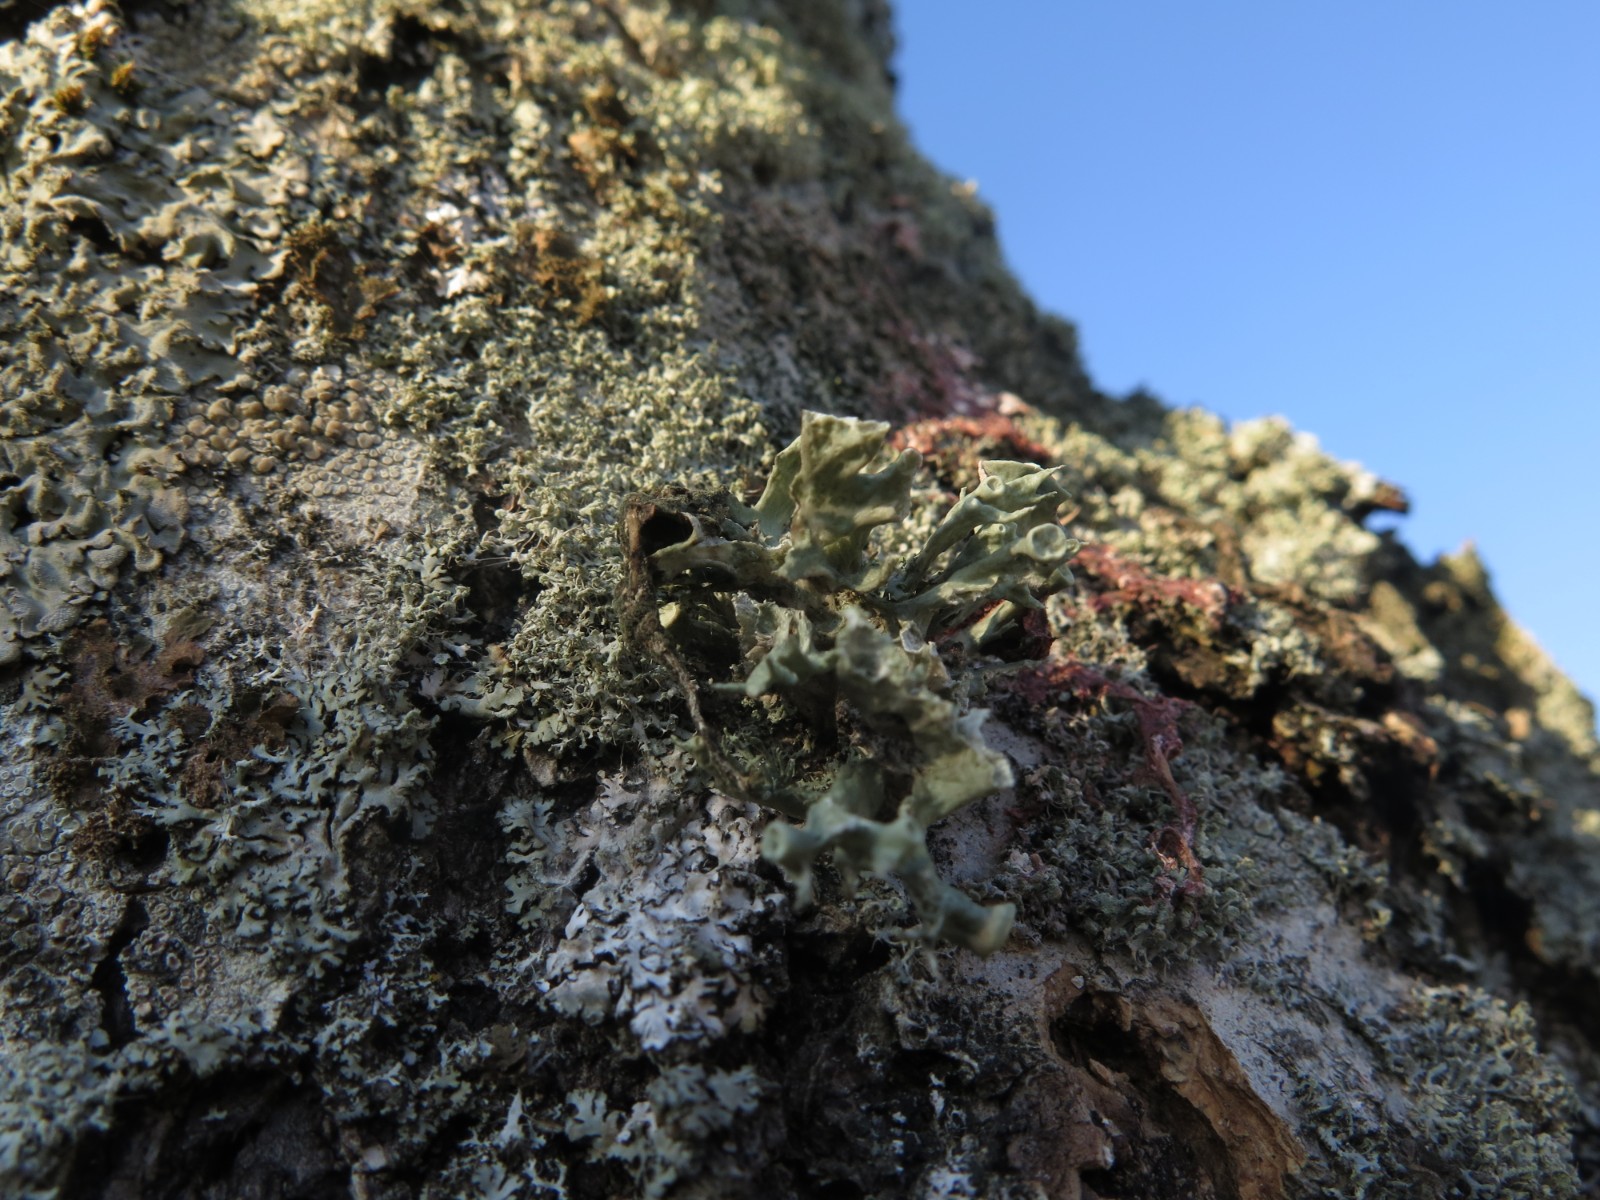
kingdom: Fungi
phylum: Ascomycota
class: Lecanoromycetes
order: Lecanorales
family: Ramalinaceae
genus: Ramalina
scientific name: Ramalina fastigiata
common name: tue-grenlav
